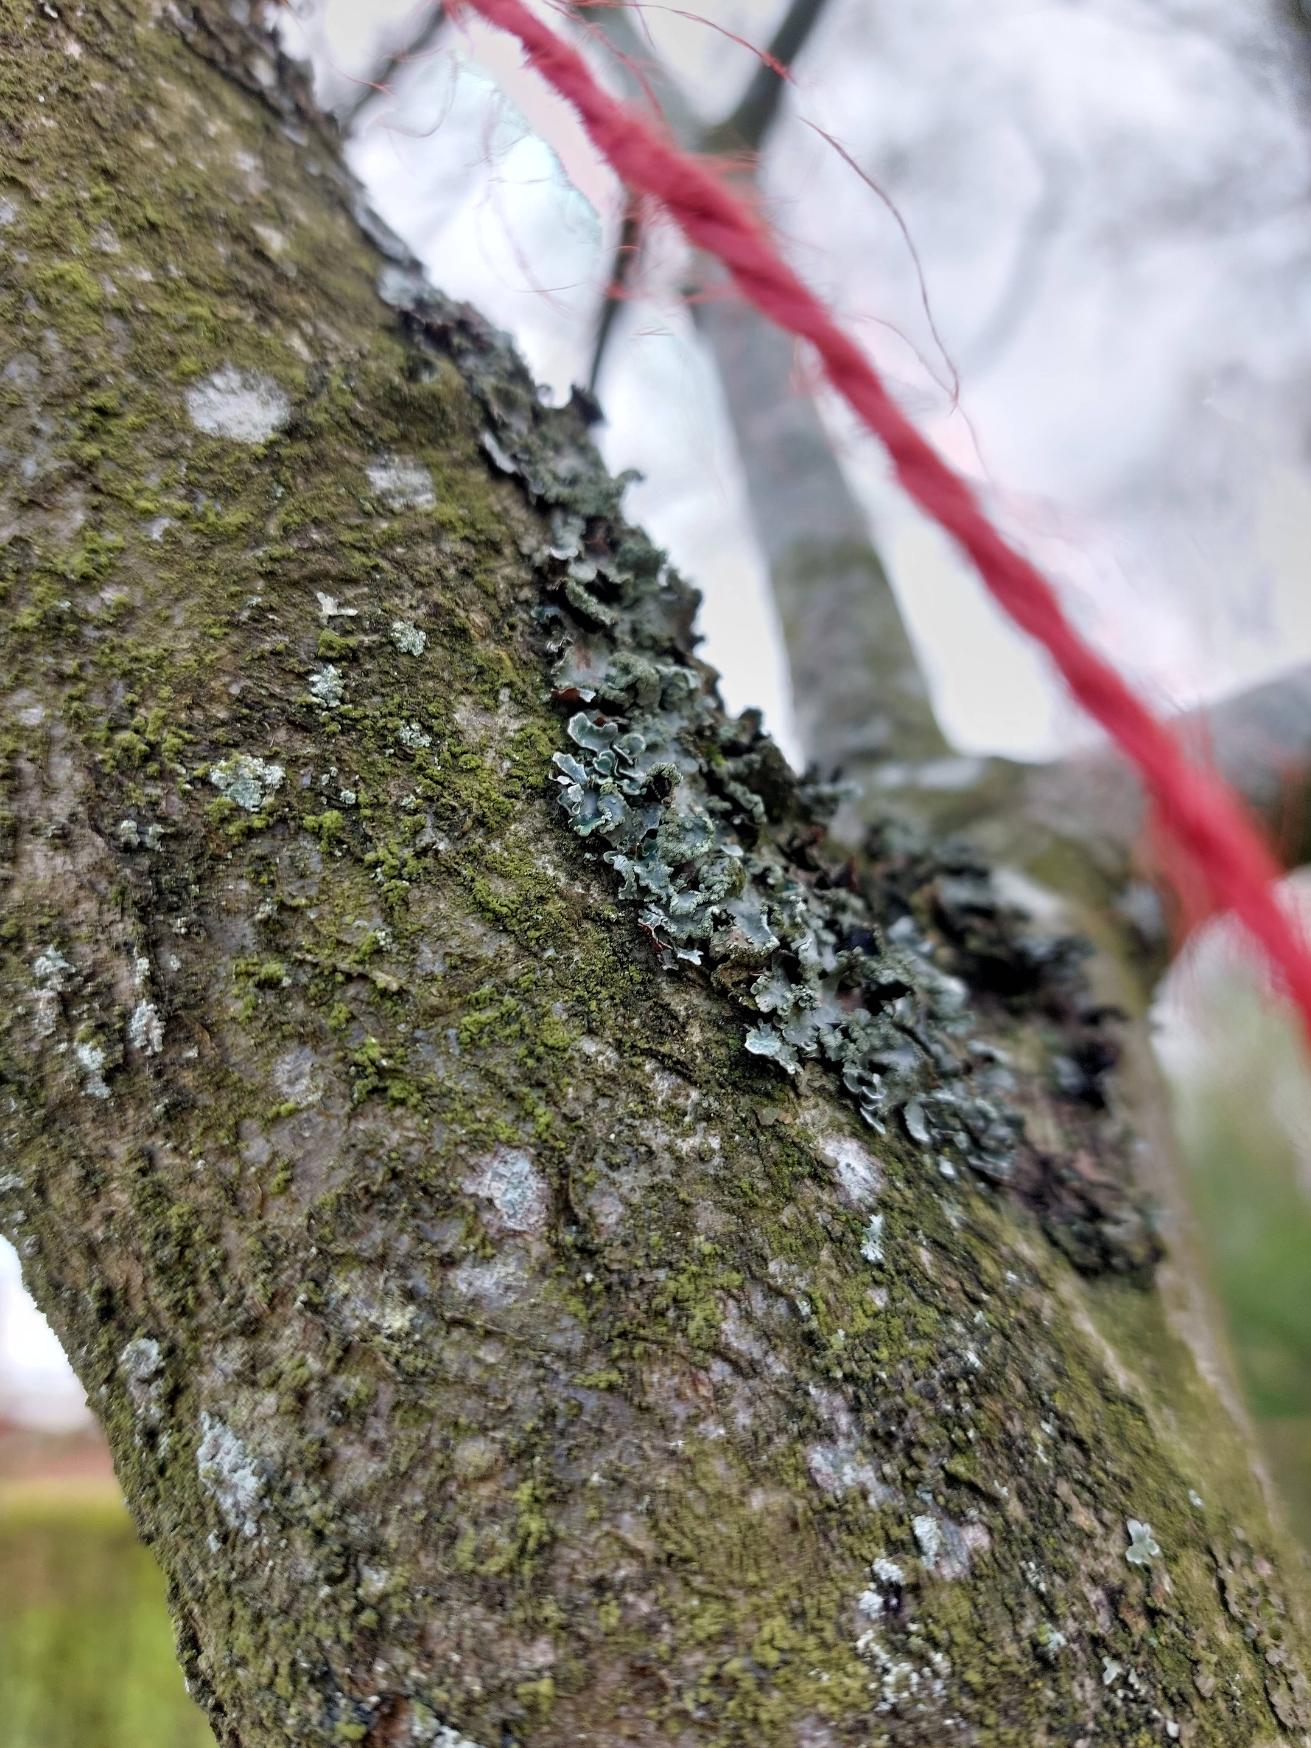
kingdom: Fungi
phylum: Ascomycota
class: Lecanoromycetes
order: Lecanorales
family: Parmeliaceae
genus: Parmelia
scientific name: Parmelia sulcata
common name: Rynket skållav
